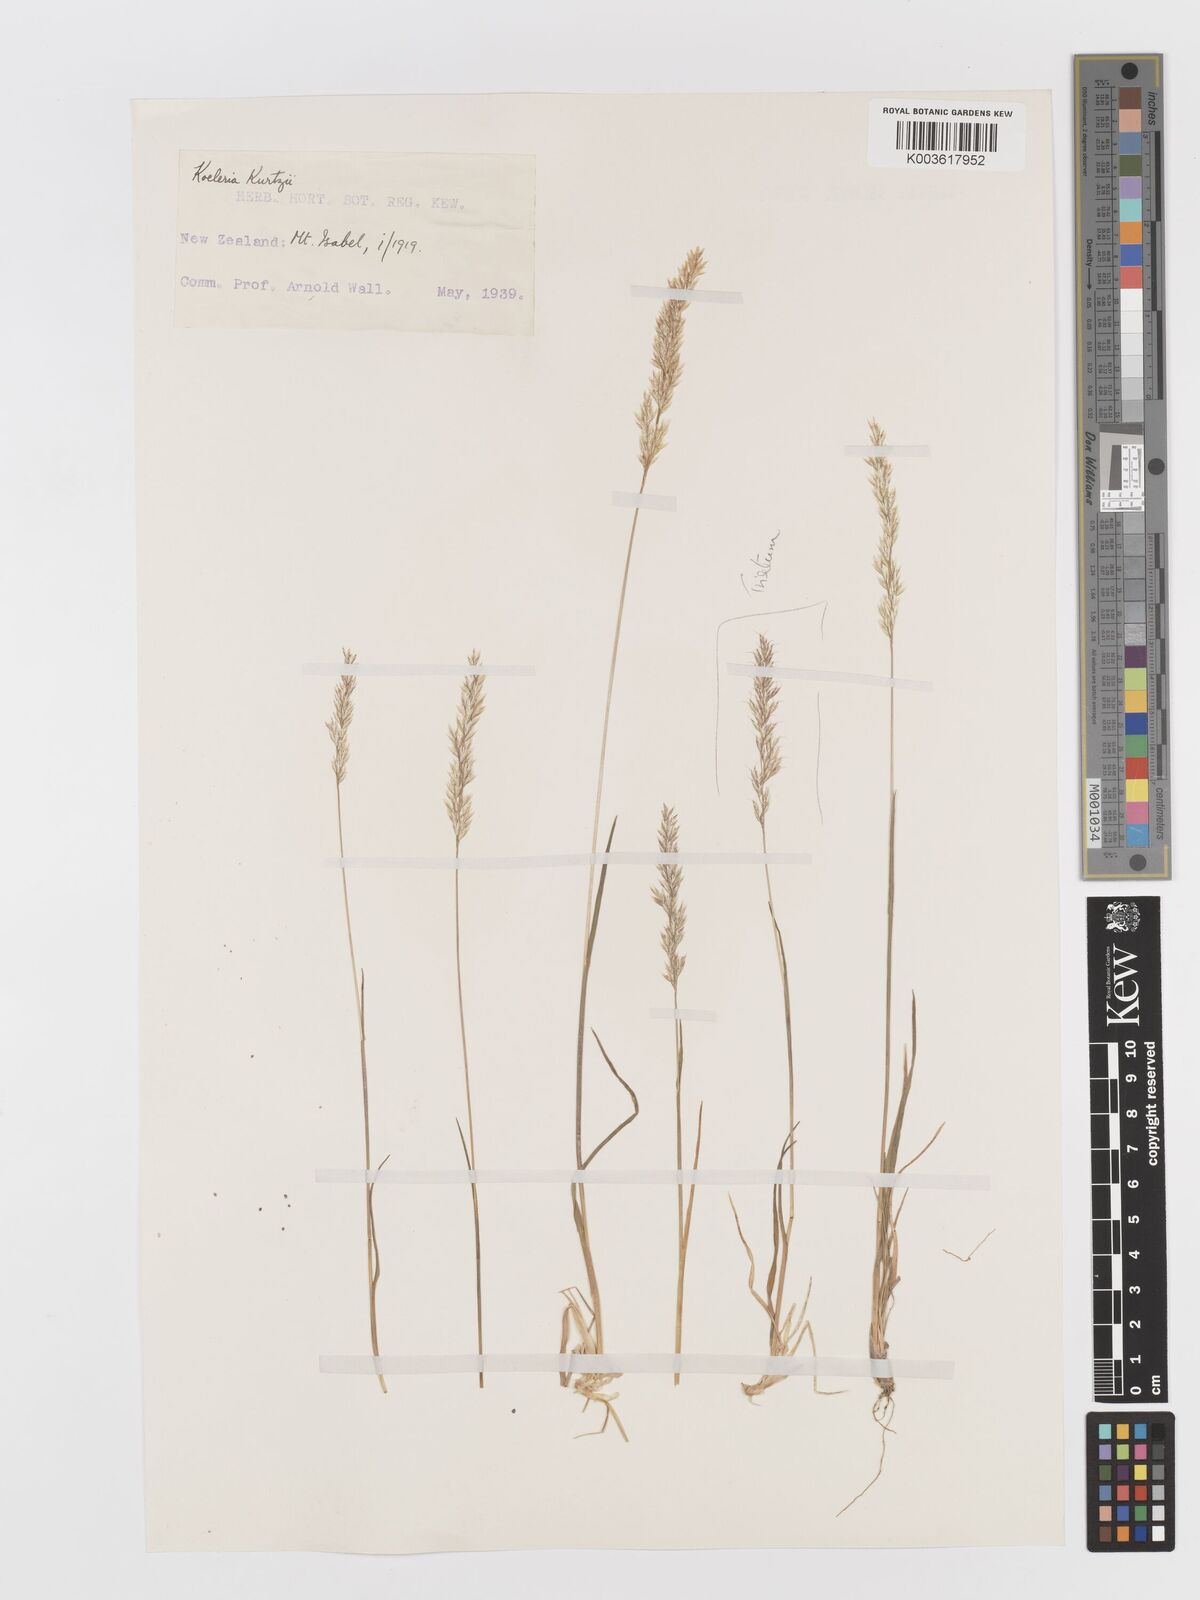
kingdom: Plantae
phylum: Tracheophyta
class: Liliopsida
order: Poales
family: Poaceae
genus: Koeleria
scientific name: Koeleria kurtzii
